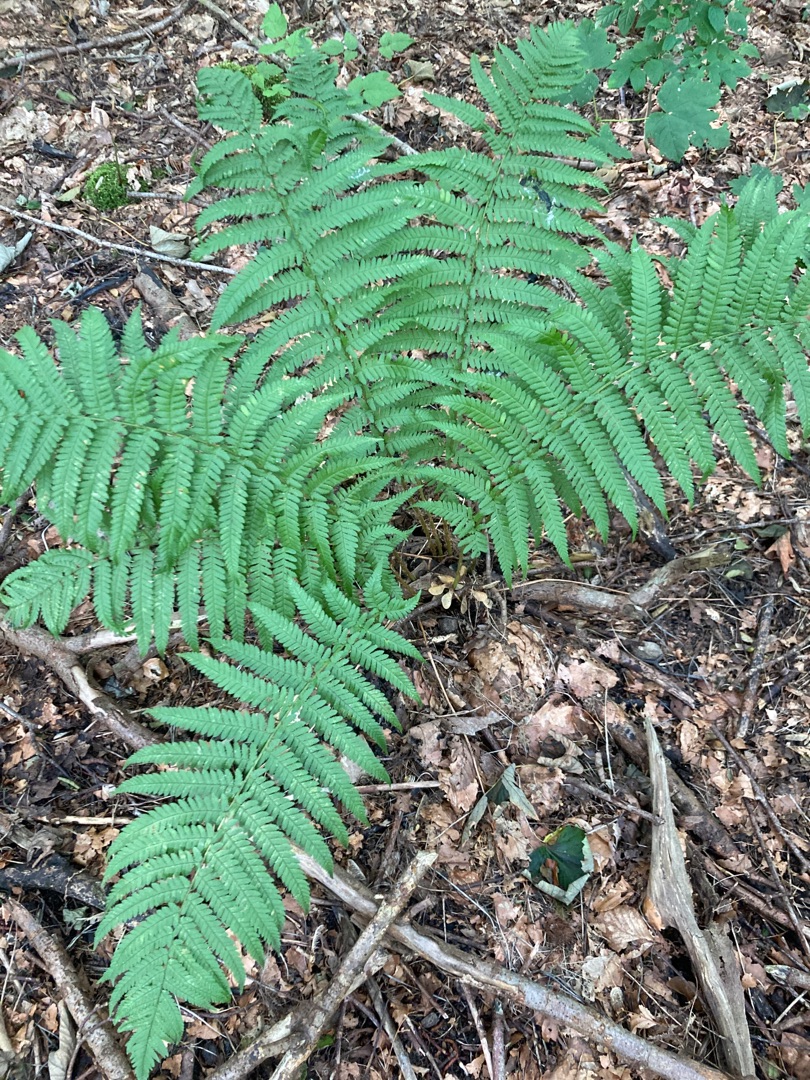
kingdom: Plantae
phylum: Tracheophyta
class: Polypodiopsida
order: Polypodiales
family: Dryopteridaceae
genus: Dryopteris
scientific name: Dryopteris filix-mas
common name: Almindelig mangeløv
